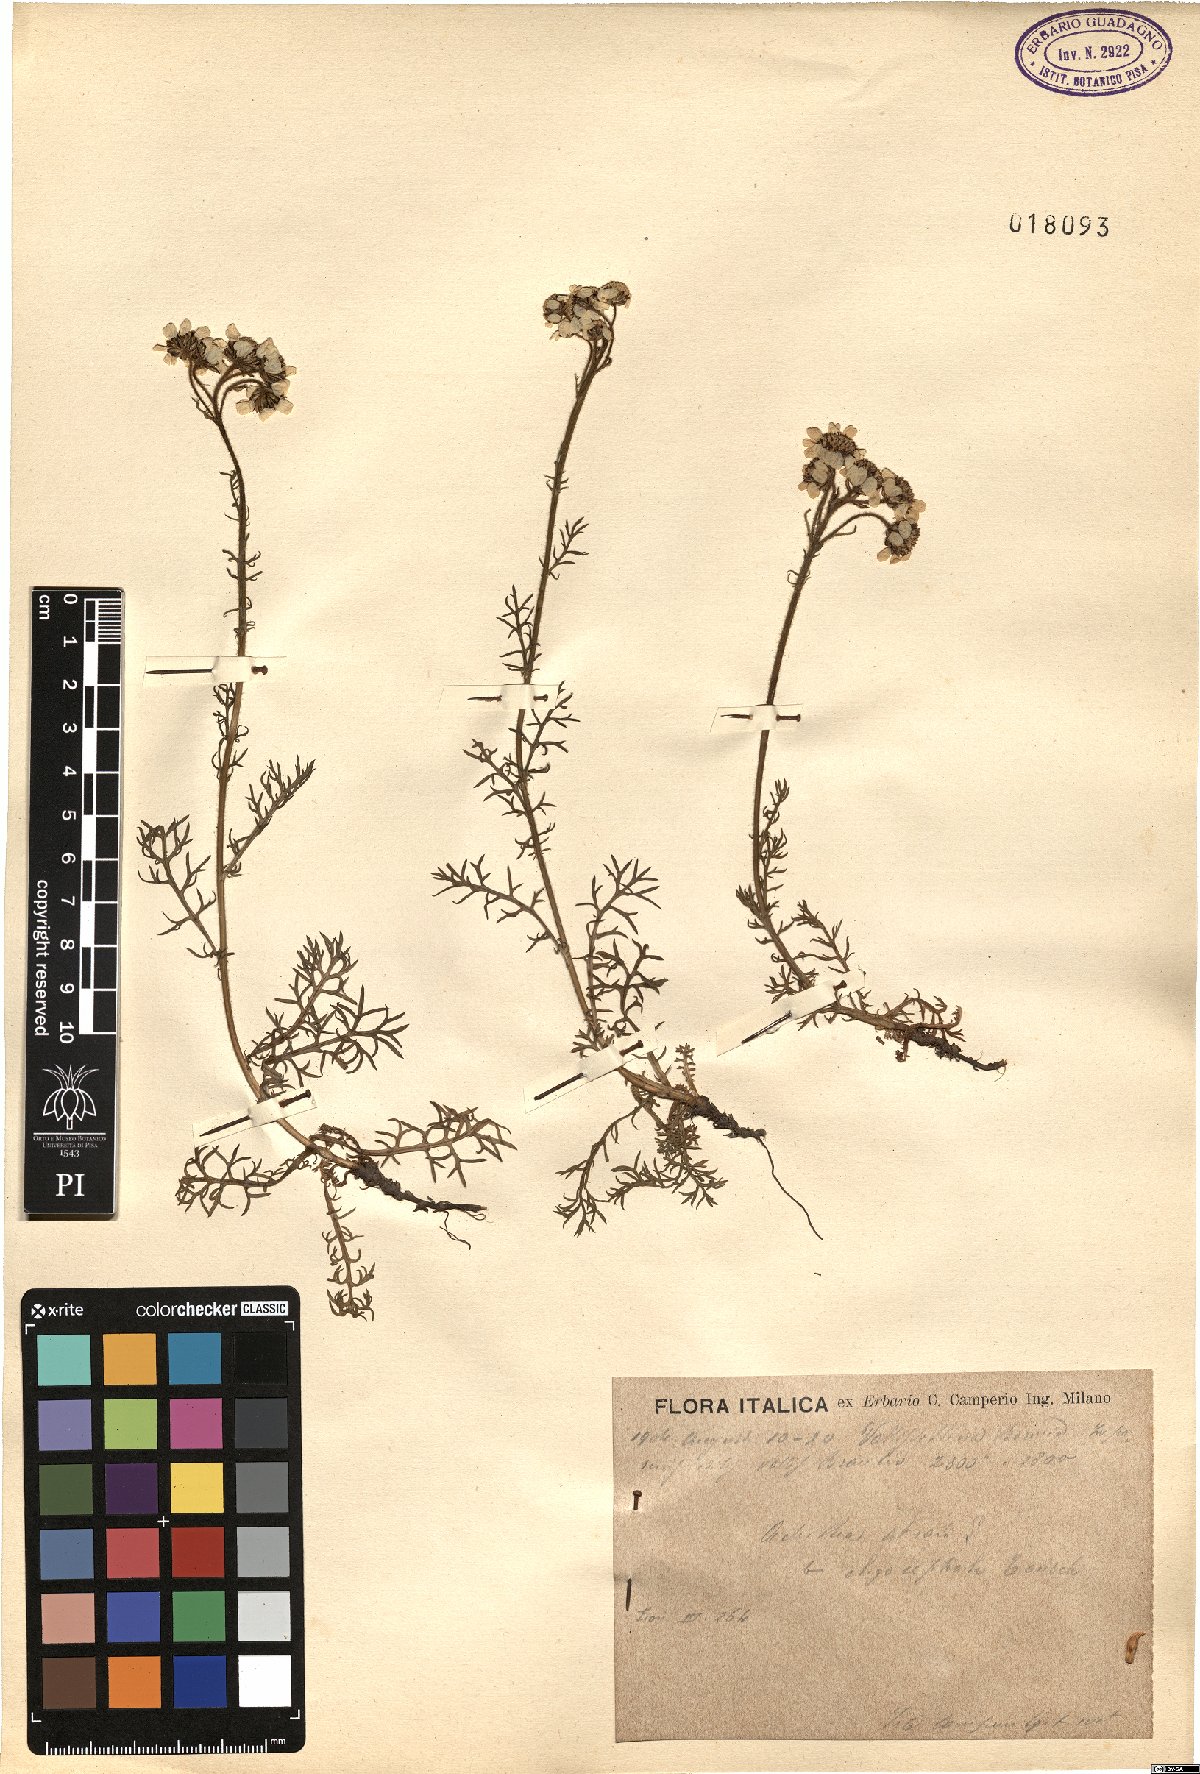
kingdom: Plantae
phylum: Tracheophyta
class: Magnoliopsida
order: Asterales
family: Asteraceae
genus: Achillea
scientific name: Achillea atrata
